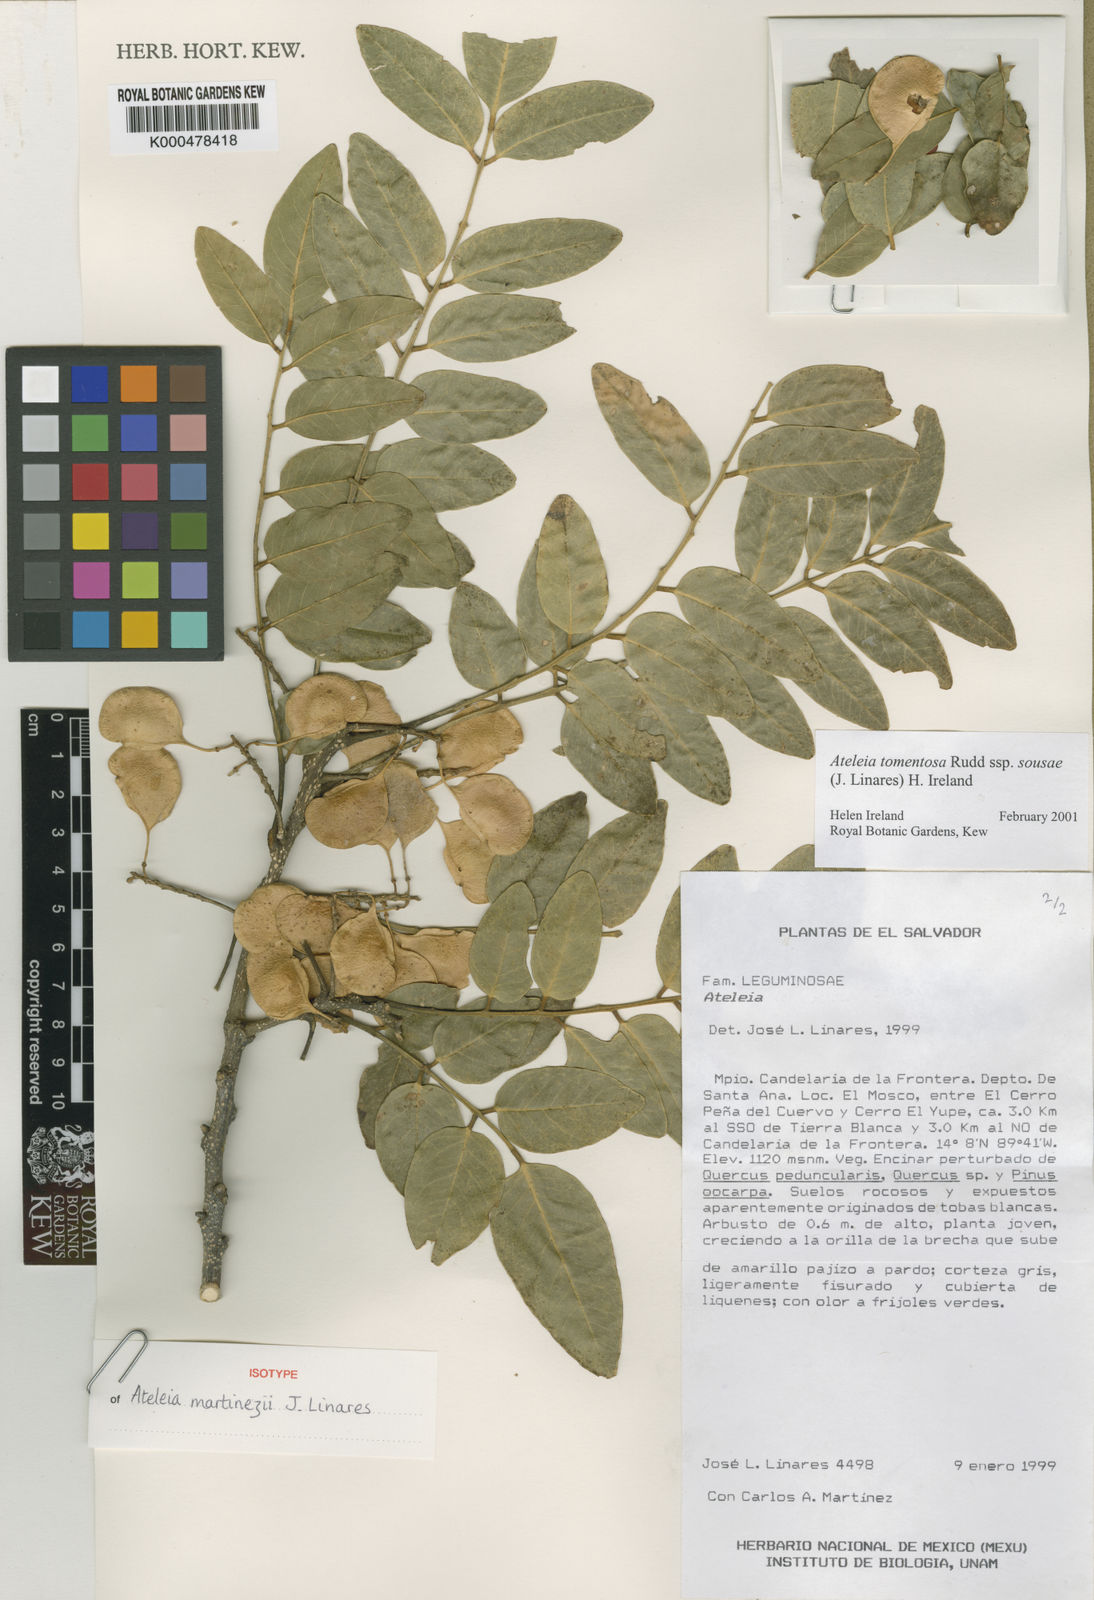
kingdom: Plantae
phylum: Tracheophyta
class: Magnoliopsida
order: Fabales
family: Fabaceae
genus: Ateleia
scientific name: Ateleia tomentosa
